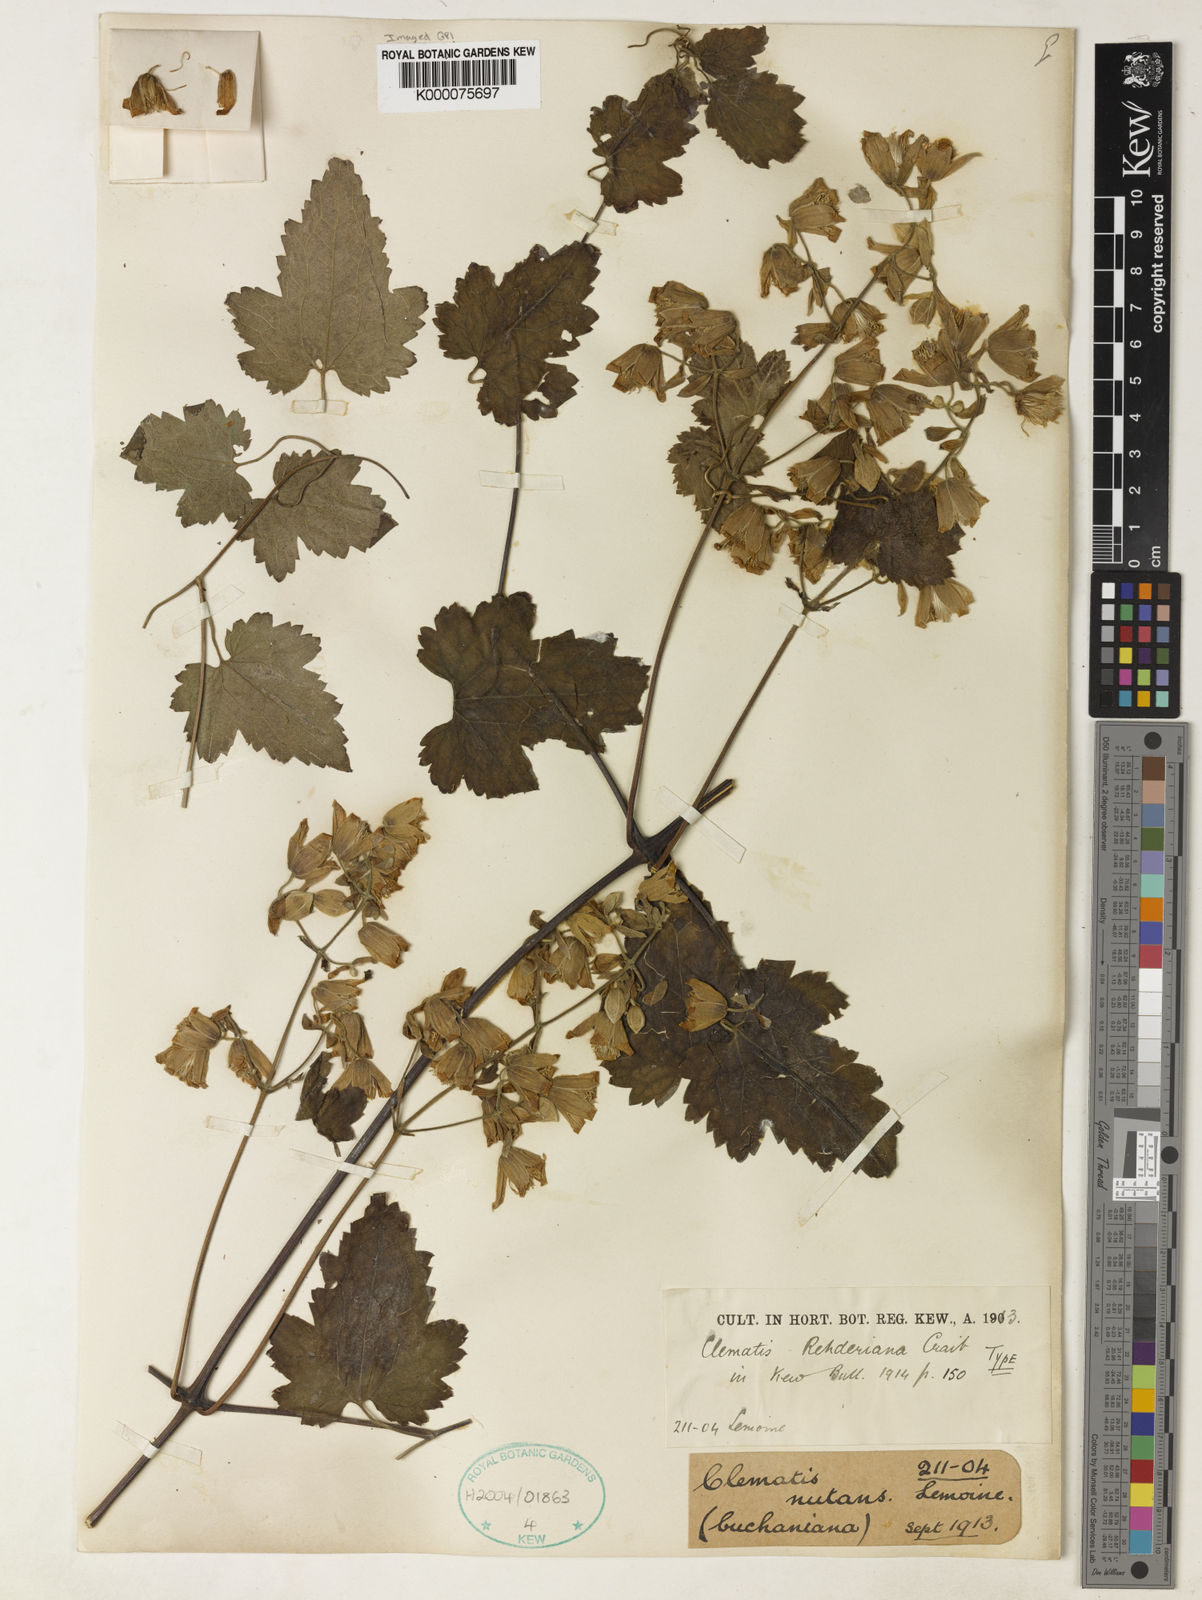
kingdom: Plantae
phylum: Tracheophyta
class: Magnoliopsida
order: Ranunculales
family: Ranunculaceae
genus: Clematis
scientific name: Clematis rehderiana
